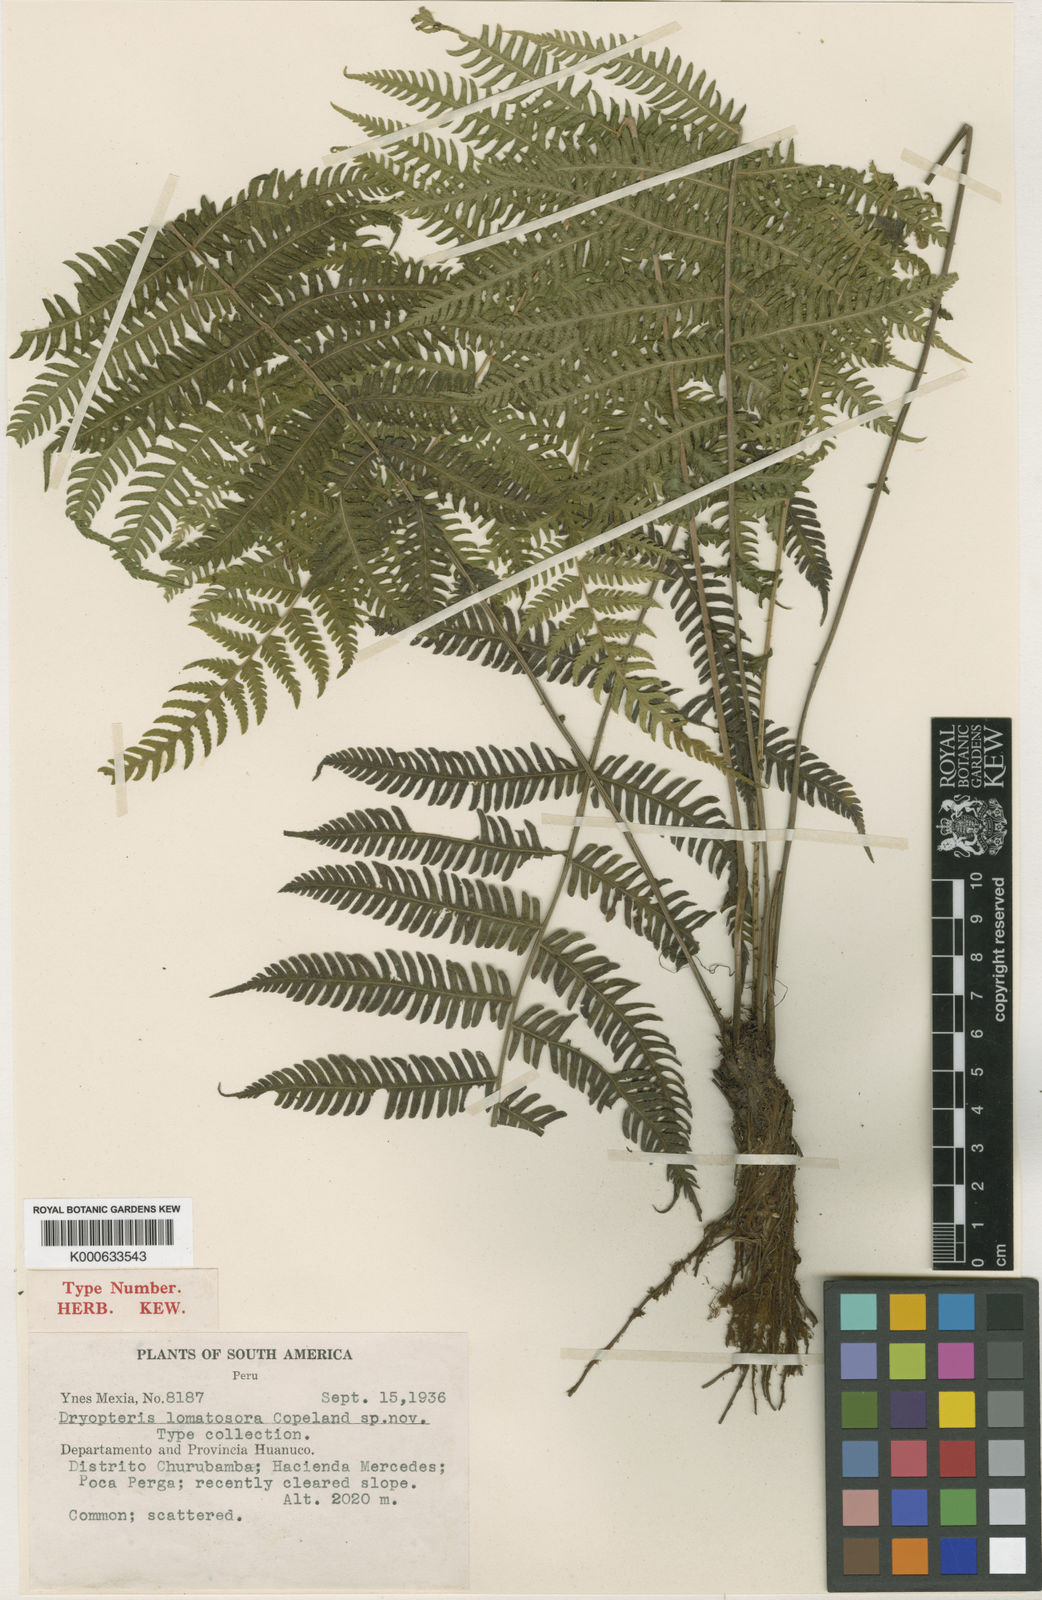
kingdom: Plantae
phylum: Tracheophyta
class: Polypodiopsida
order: Polypodiales
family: Thelypteridaceae
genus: Amauropelta
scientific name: Amauropelta
